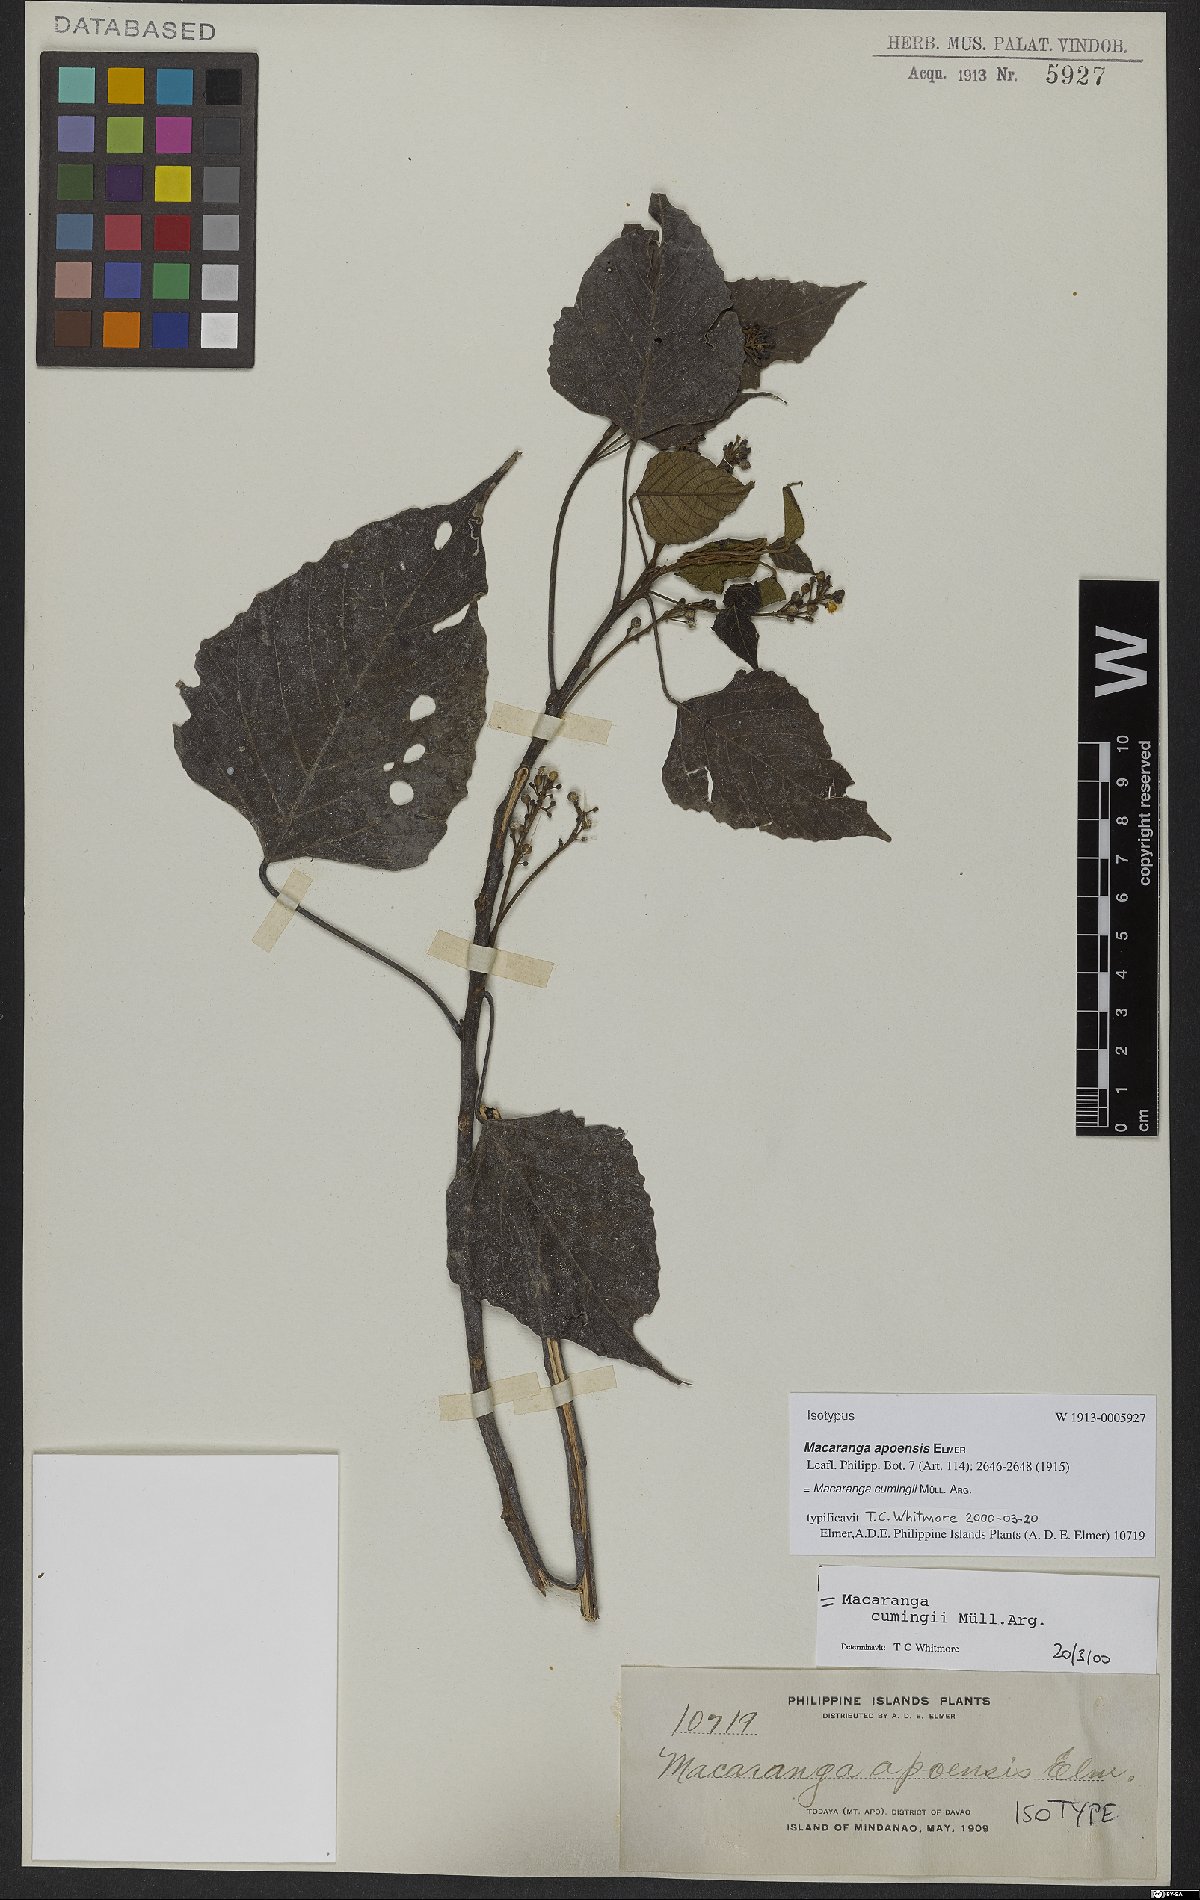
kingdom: Plantae
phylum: Tracheophyta
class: Magnoliopsida
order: Malpighiales
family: Euphorbiaceae
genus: Macaranga
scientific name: Macaranga cumingii
